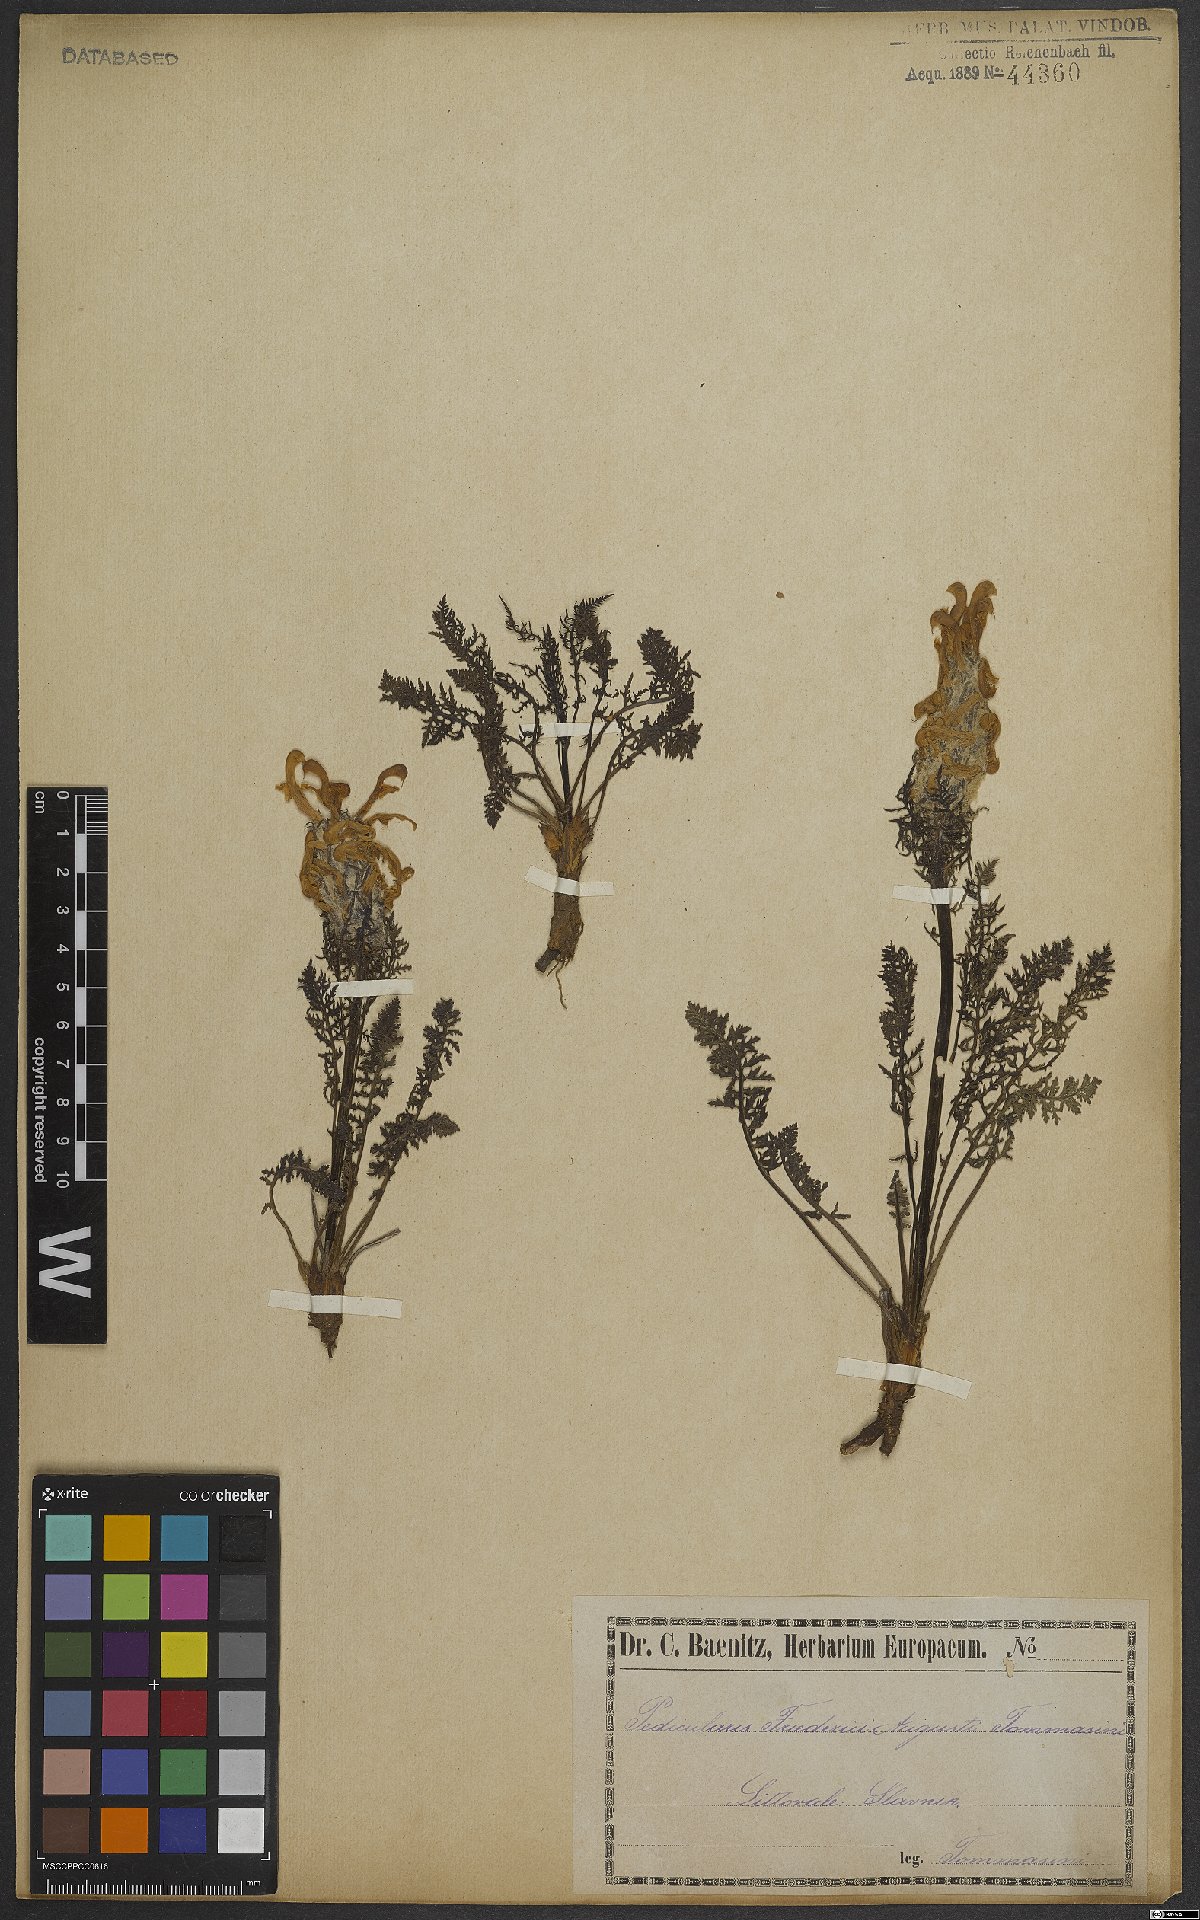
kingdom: Plantae
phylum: Tracheophyta
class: Magnoliopsida
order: Lamiales
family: Orobanchaceae
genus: Pedicularis
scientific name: Pedicularis friderici-augusti
